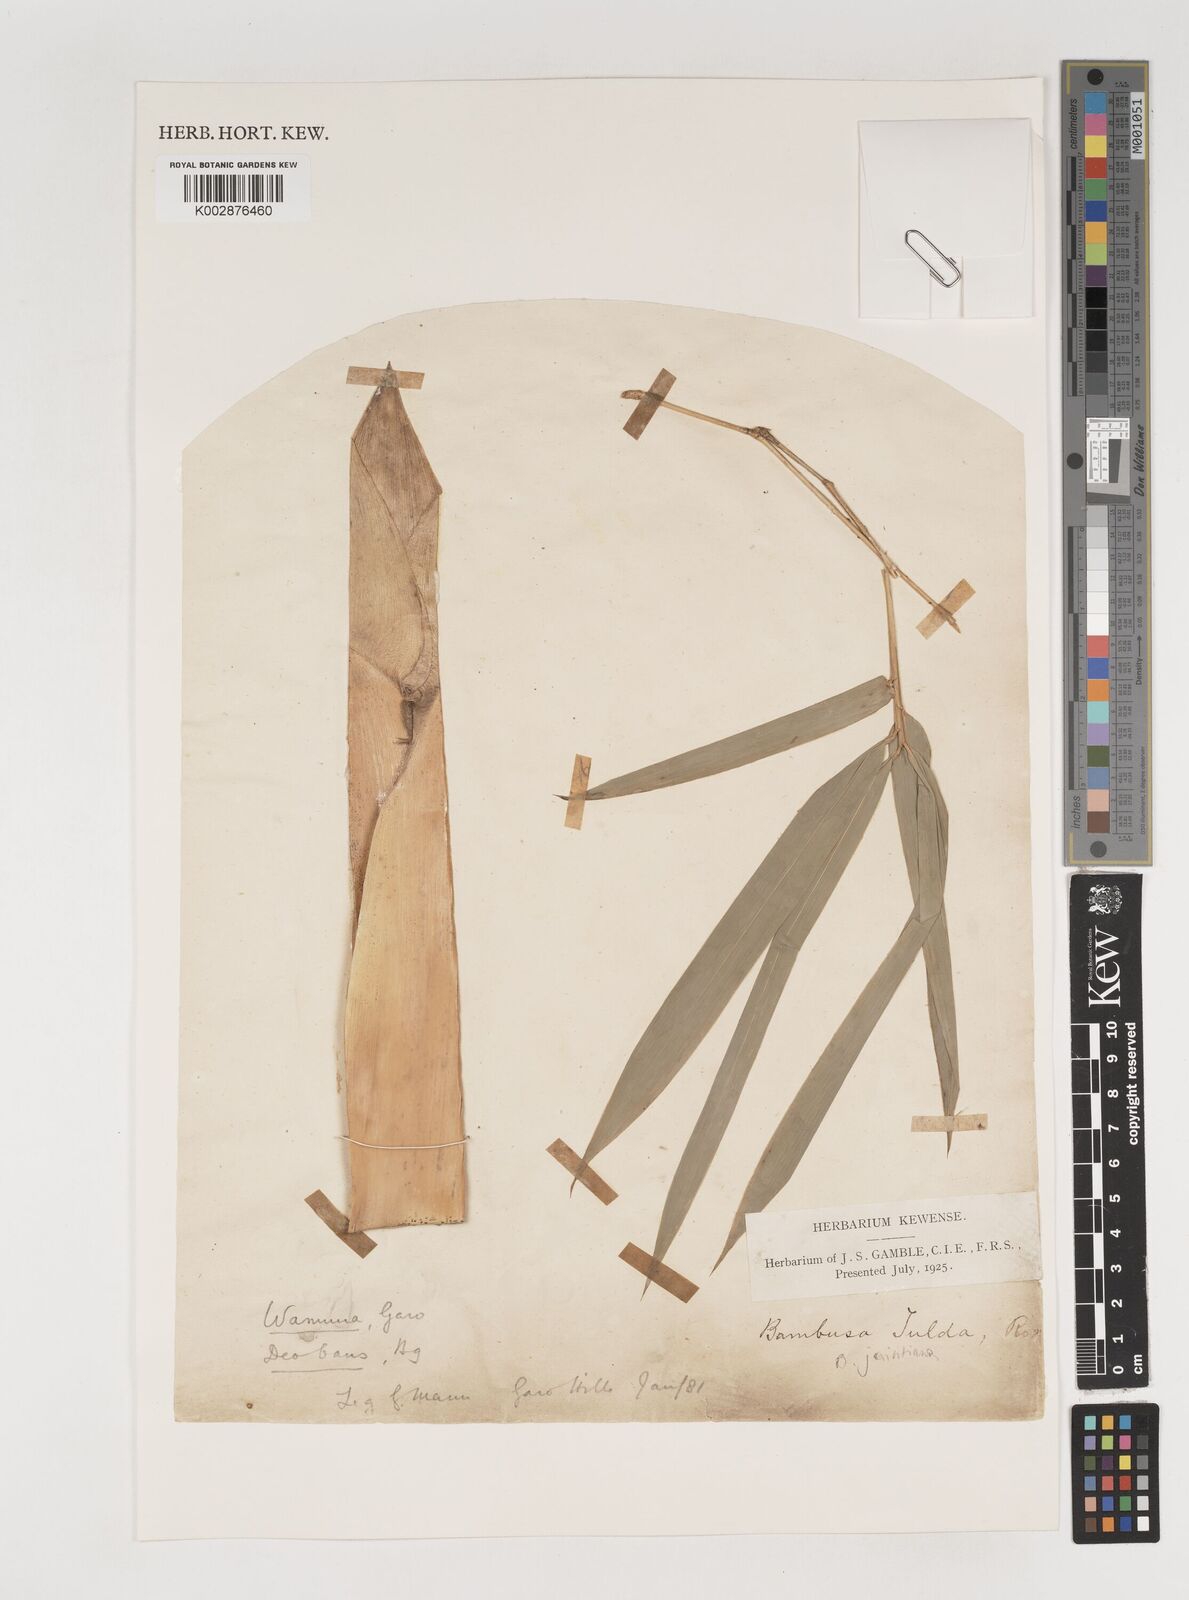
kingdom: Plantae
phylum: Tracheophyta
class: Liliopsida
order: Poales
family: Poaceae
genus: Bambusa
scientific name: Bambusa jaintiana
